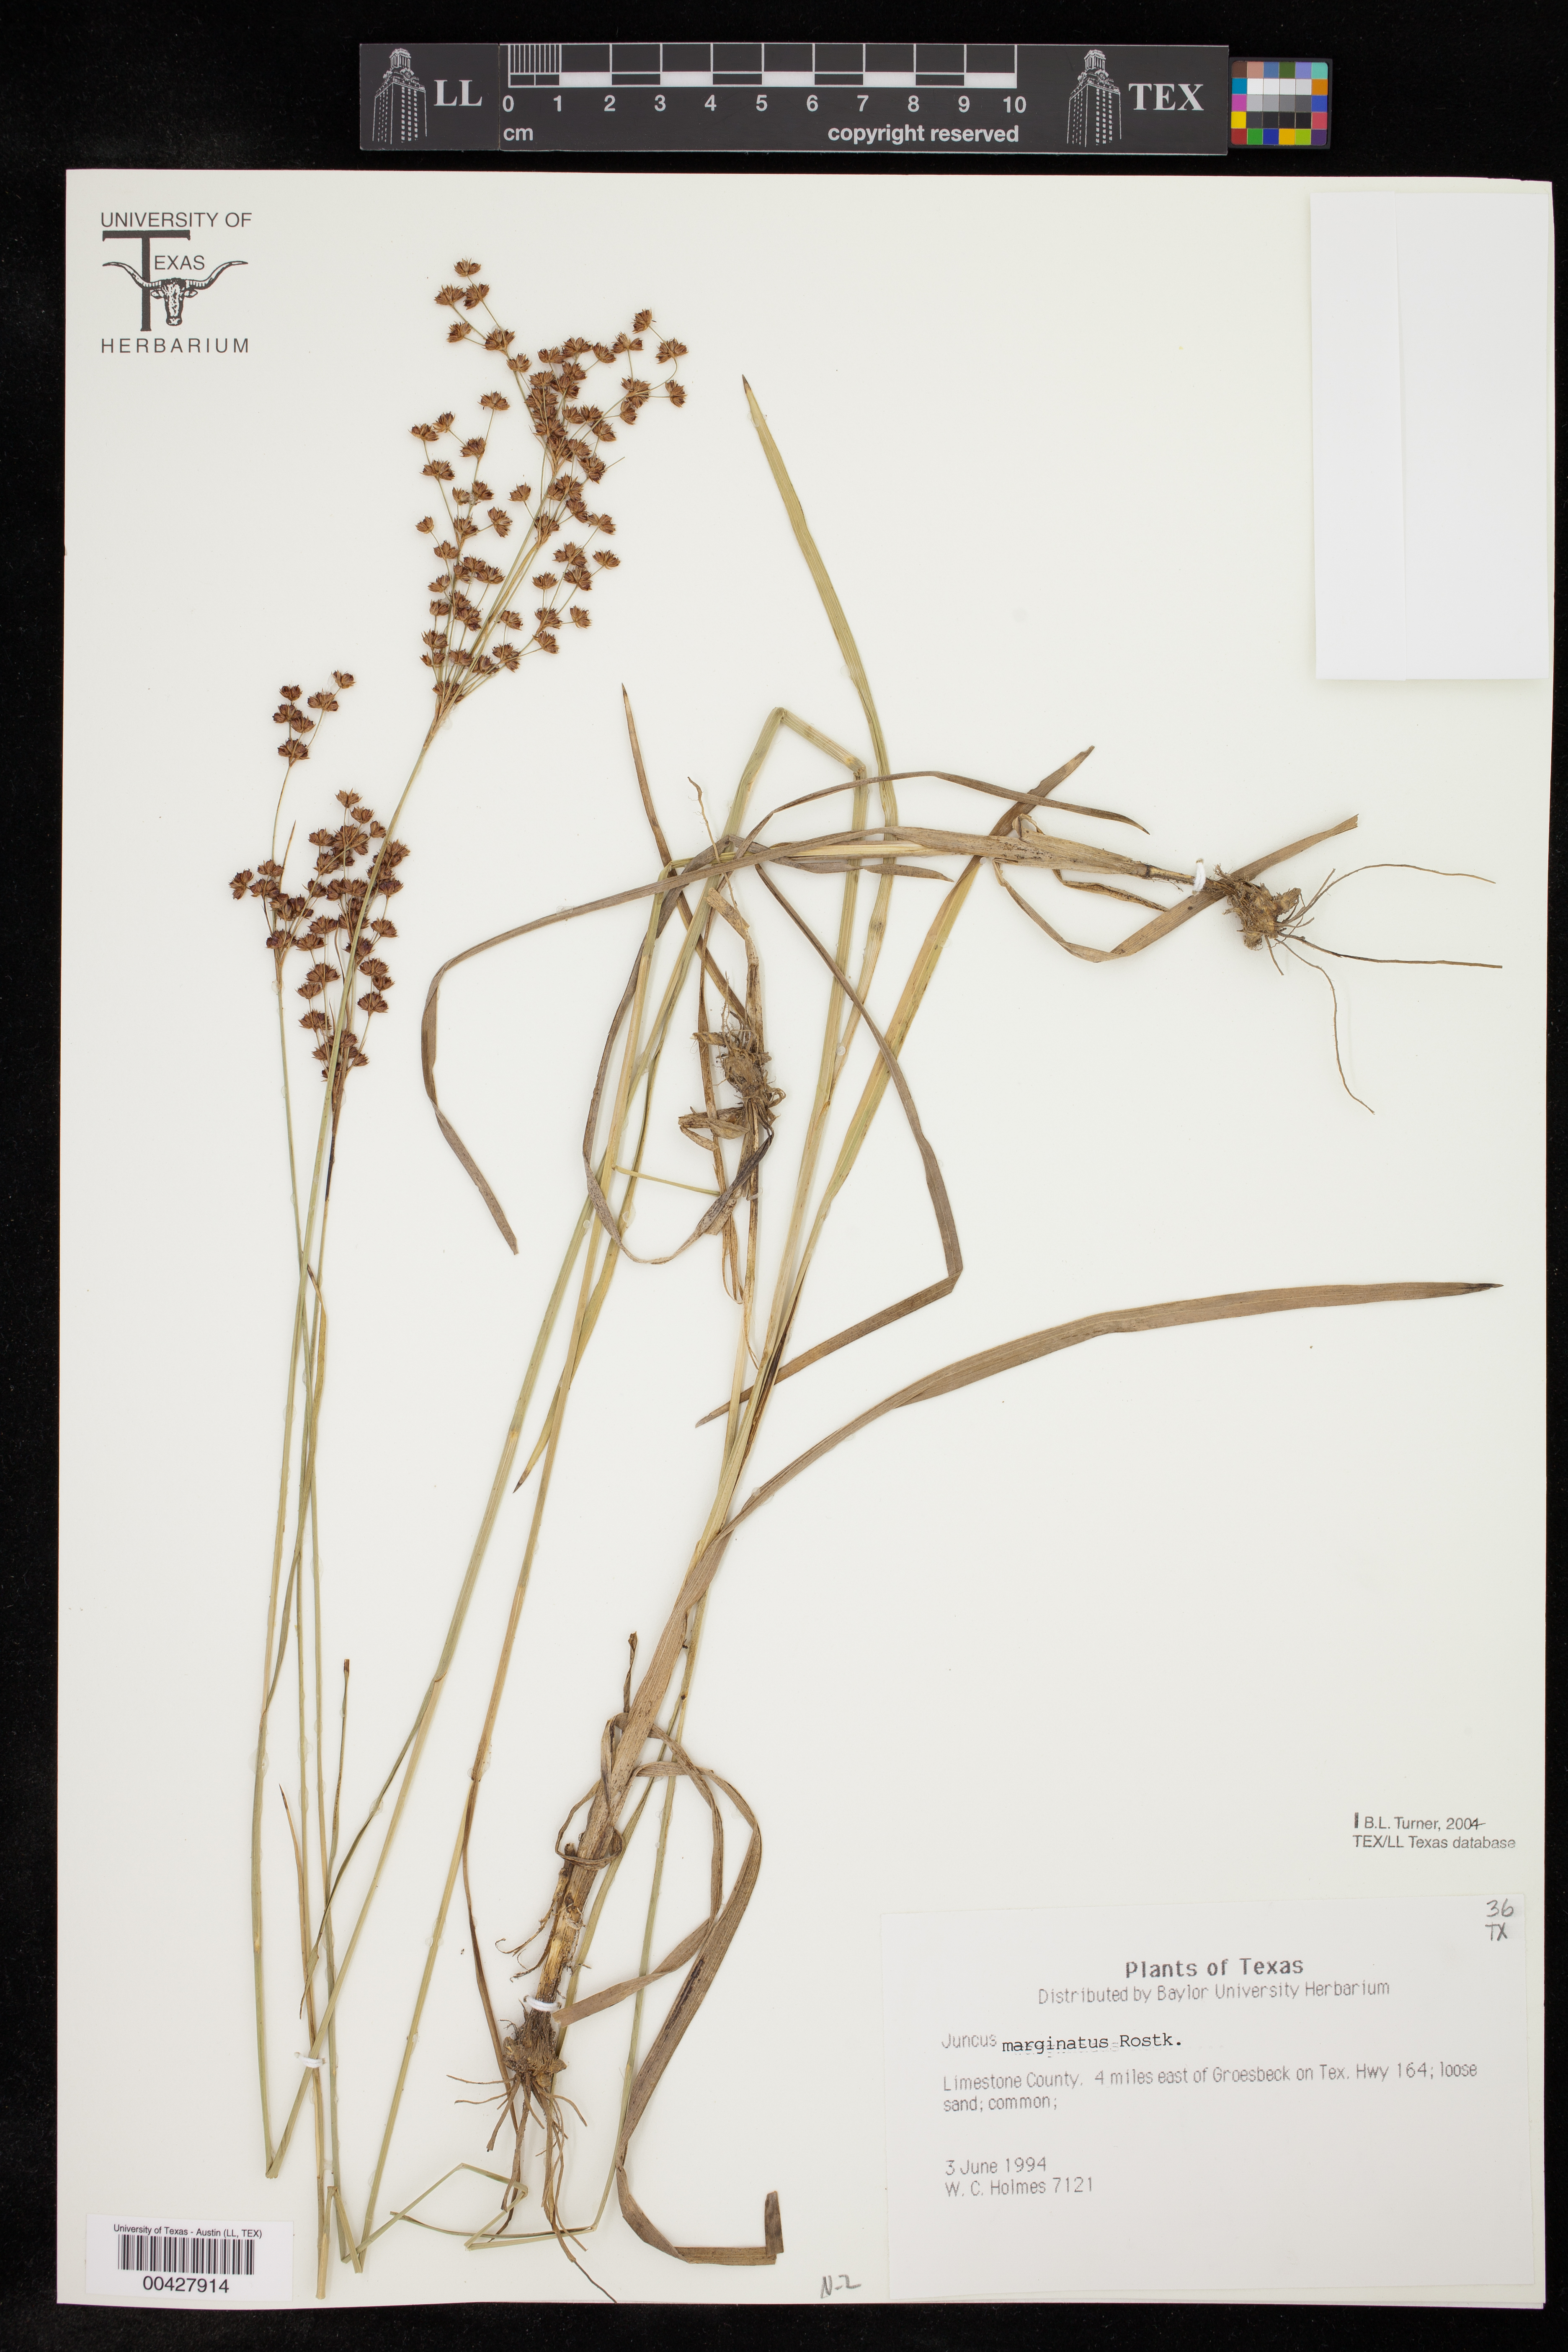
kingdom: Plantae
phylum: Tracheophyta
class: Liliopsida
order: Poales
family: Juncaceae
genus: Juncus
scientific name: Juncus marginatus
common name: Grass-leaf rush
